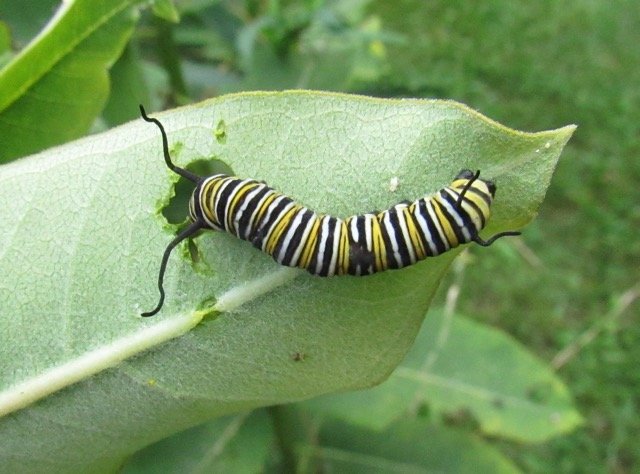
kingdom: Animalia
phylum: Arthropoda
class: Insecta
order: Lepidoptera
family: Nymphalidae
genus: Danaus
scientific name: Danaus plexippus
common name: Monarch
